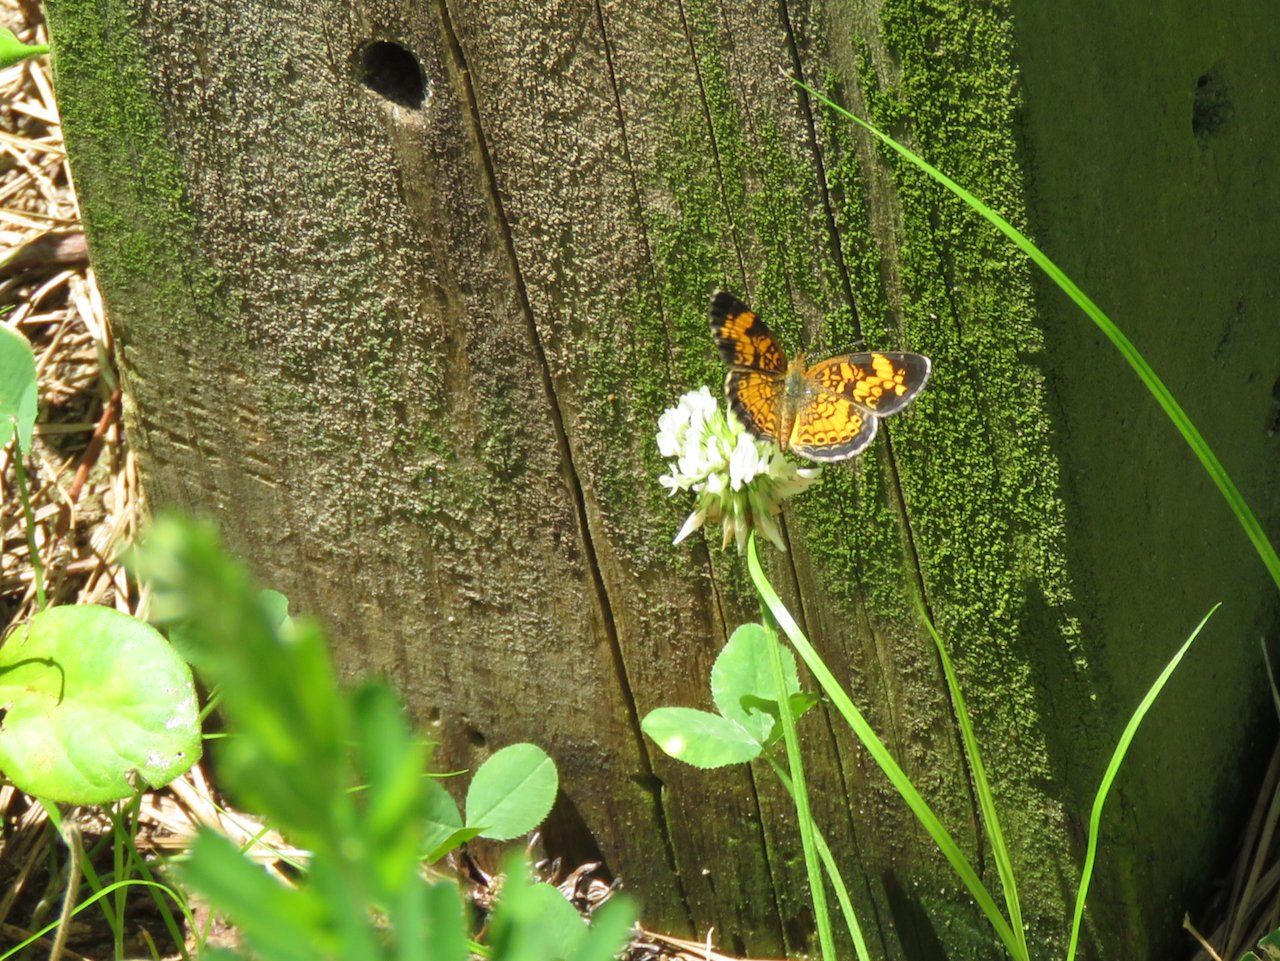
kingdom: Animalia
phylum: Arthropoda
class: Insecta
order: Lepidoptera
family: Nymphalidae
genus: Phyciodes
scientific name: Phyciodes tharos
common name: Pearl Crescent
